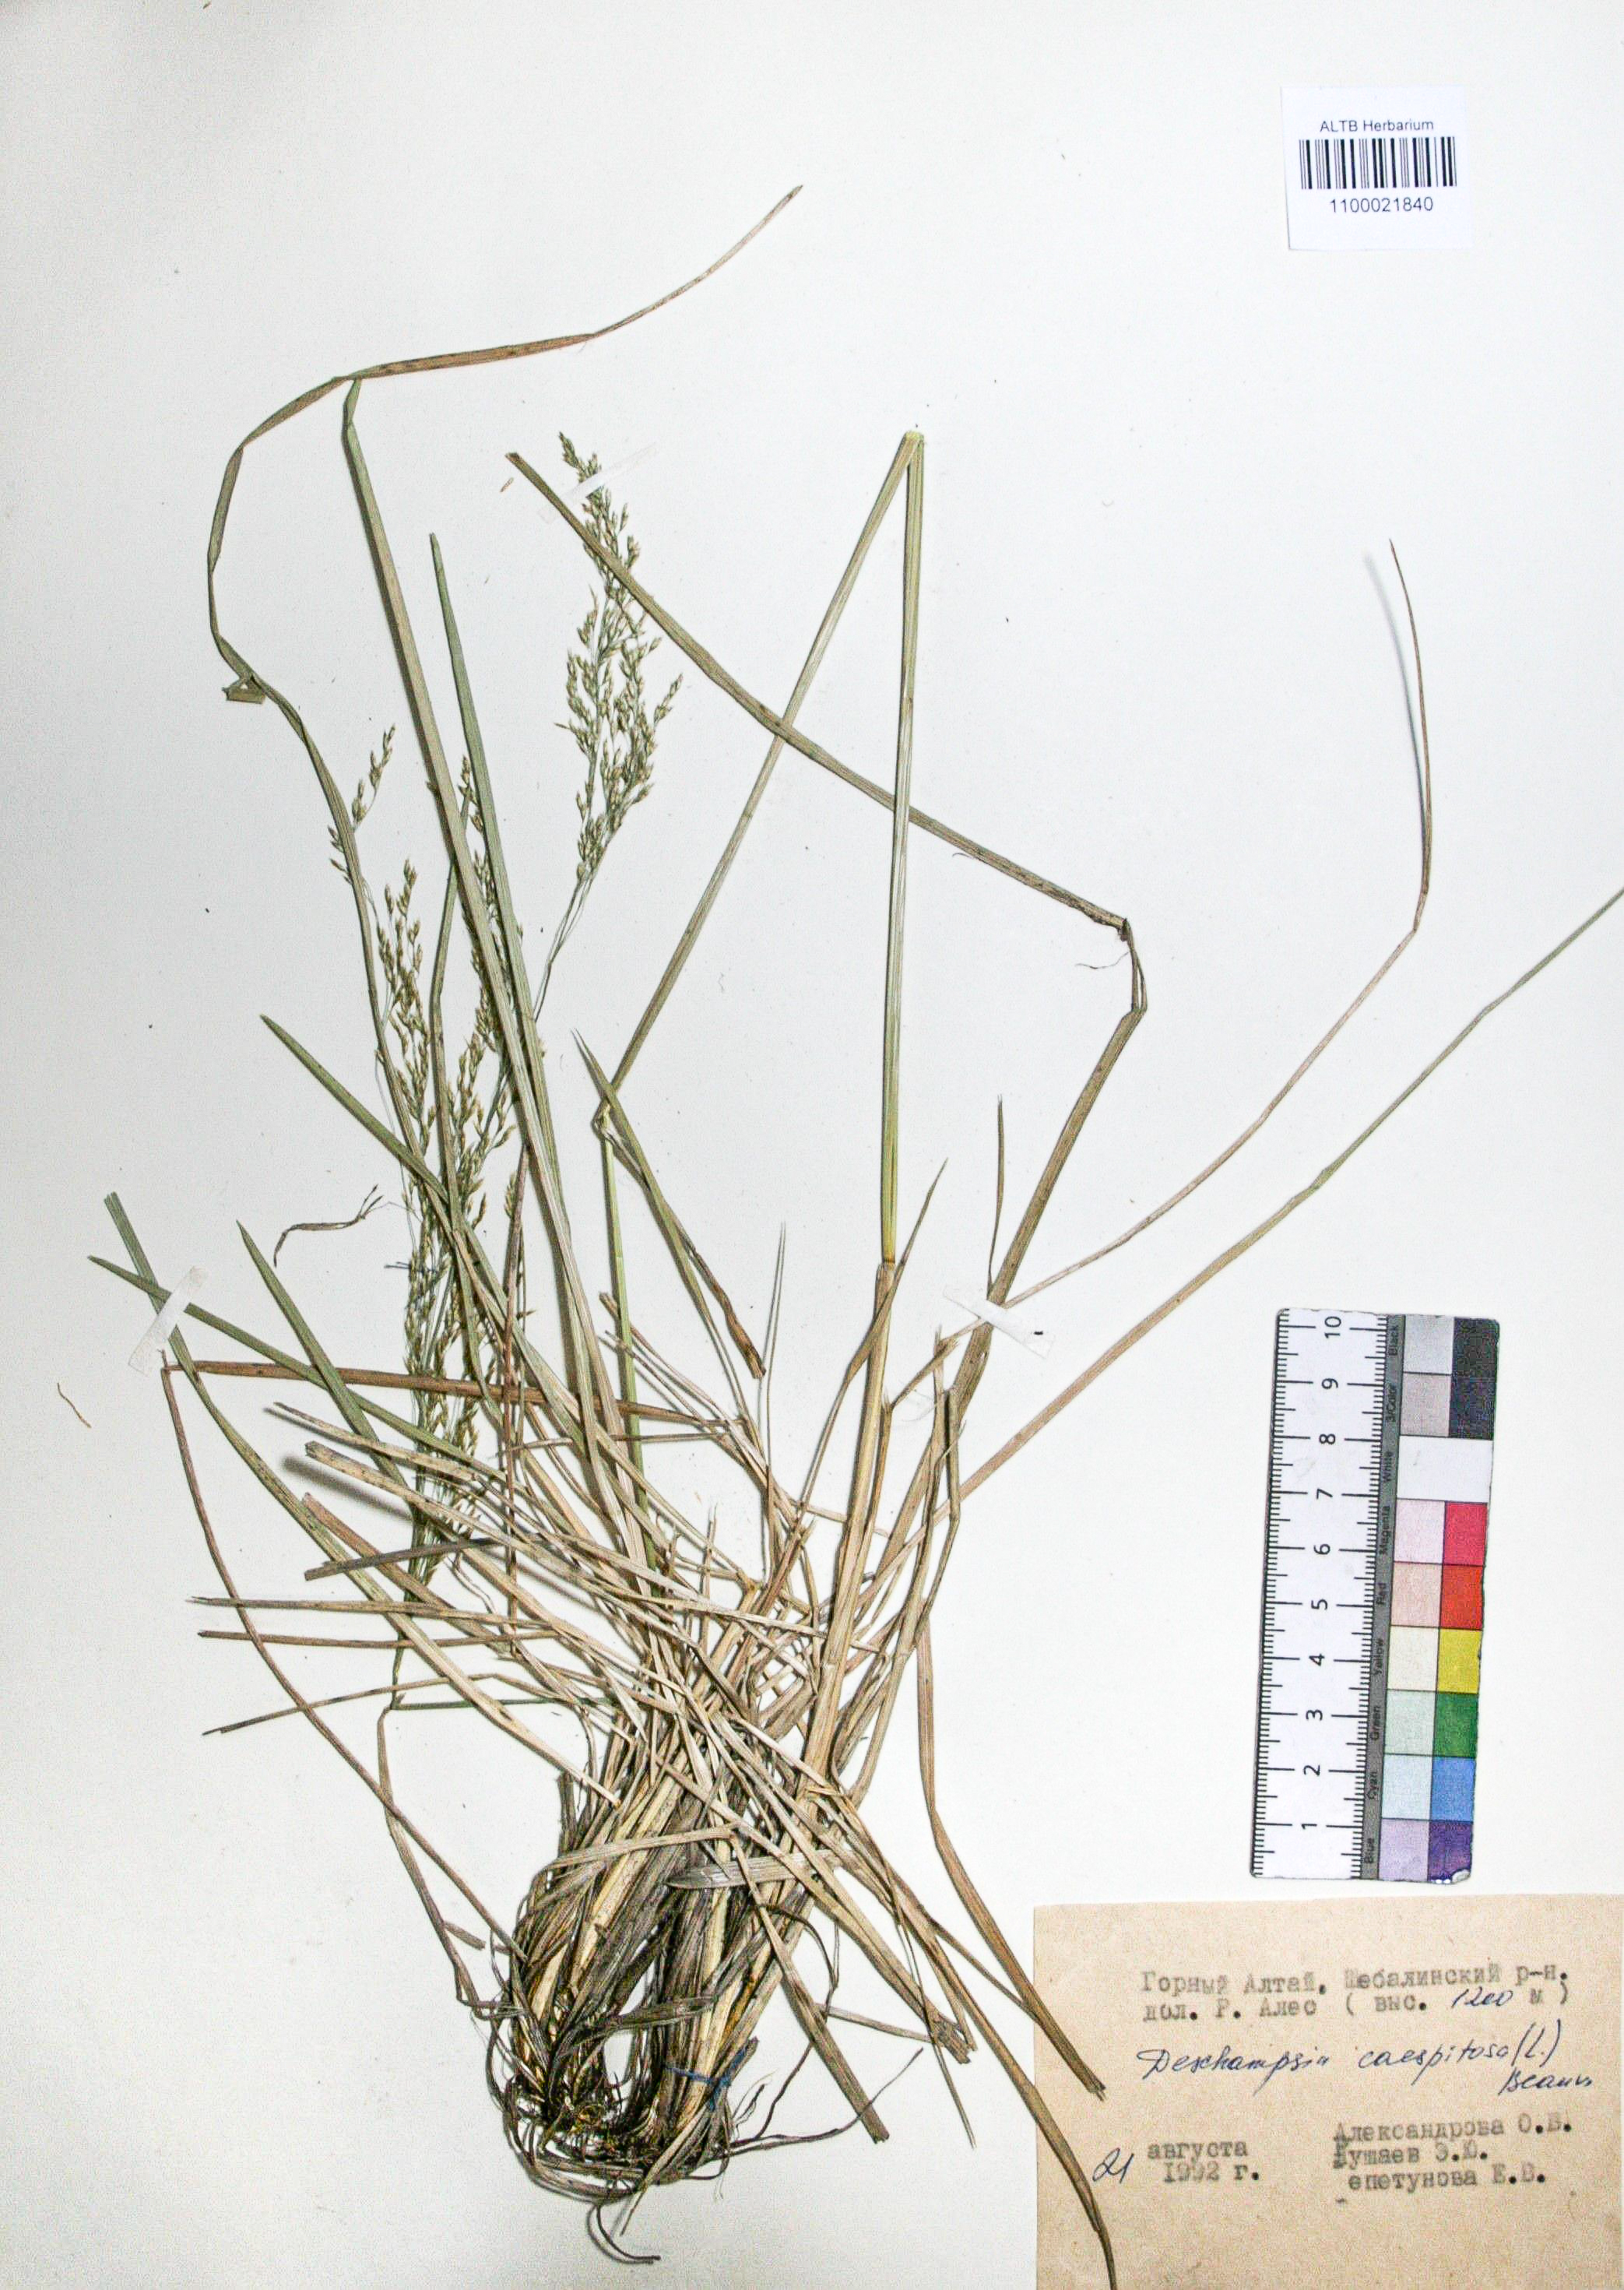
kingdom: Plantae
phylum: Tracheophyta
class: Liliopsida
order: Poales
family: Poaceae
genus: Deschampsia
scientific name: Deschampsia cespitosa
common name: Tufted hair-grass
